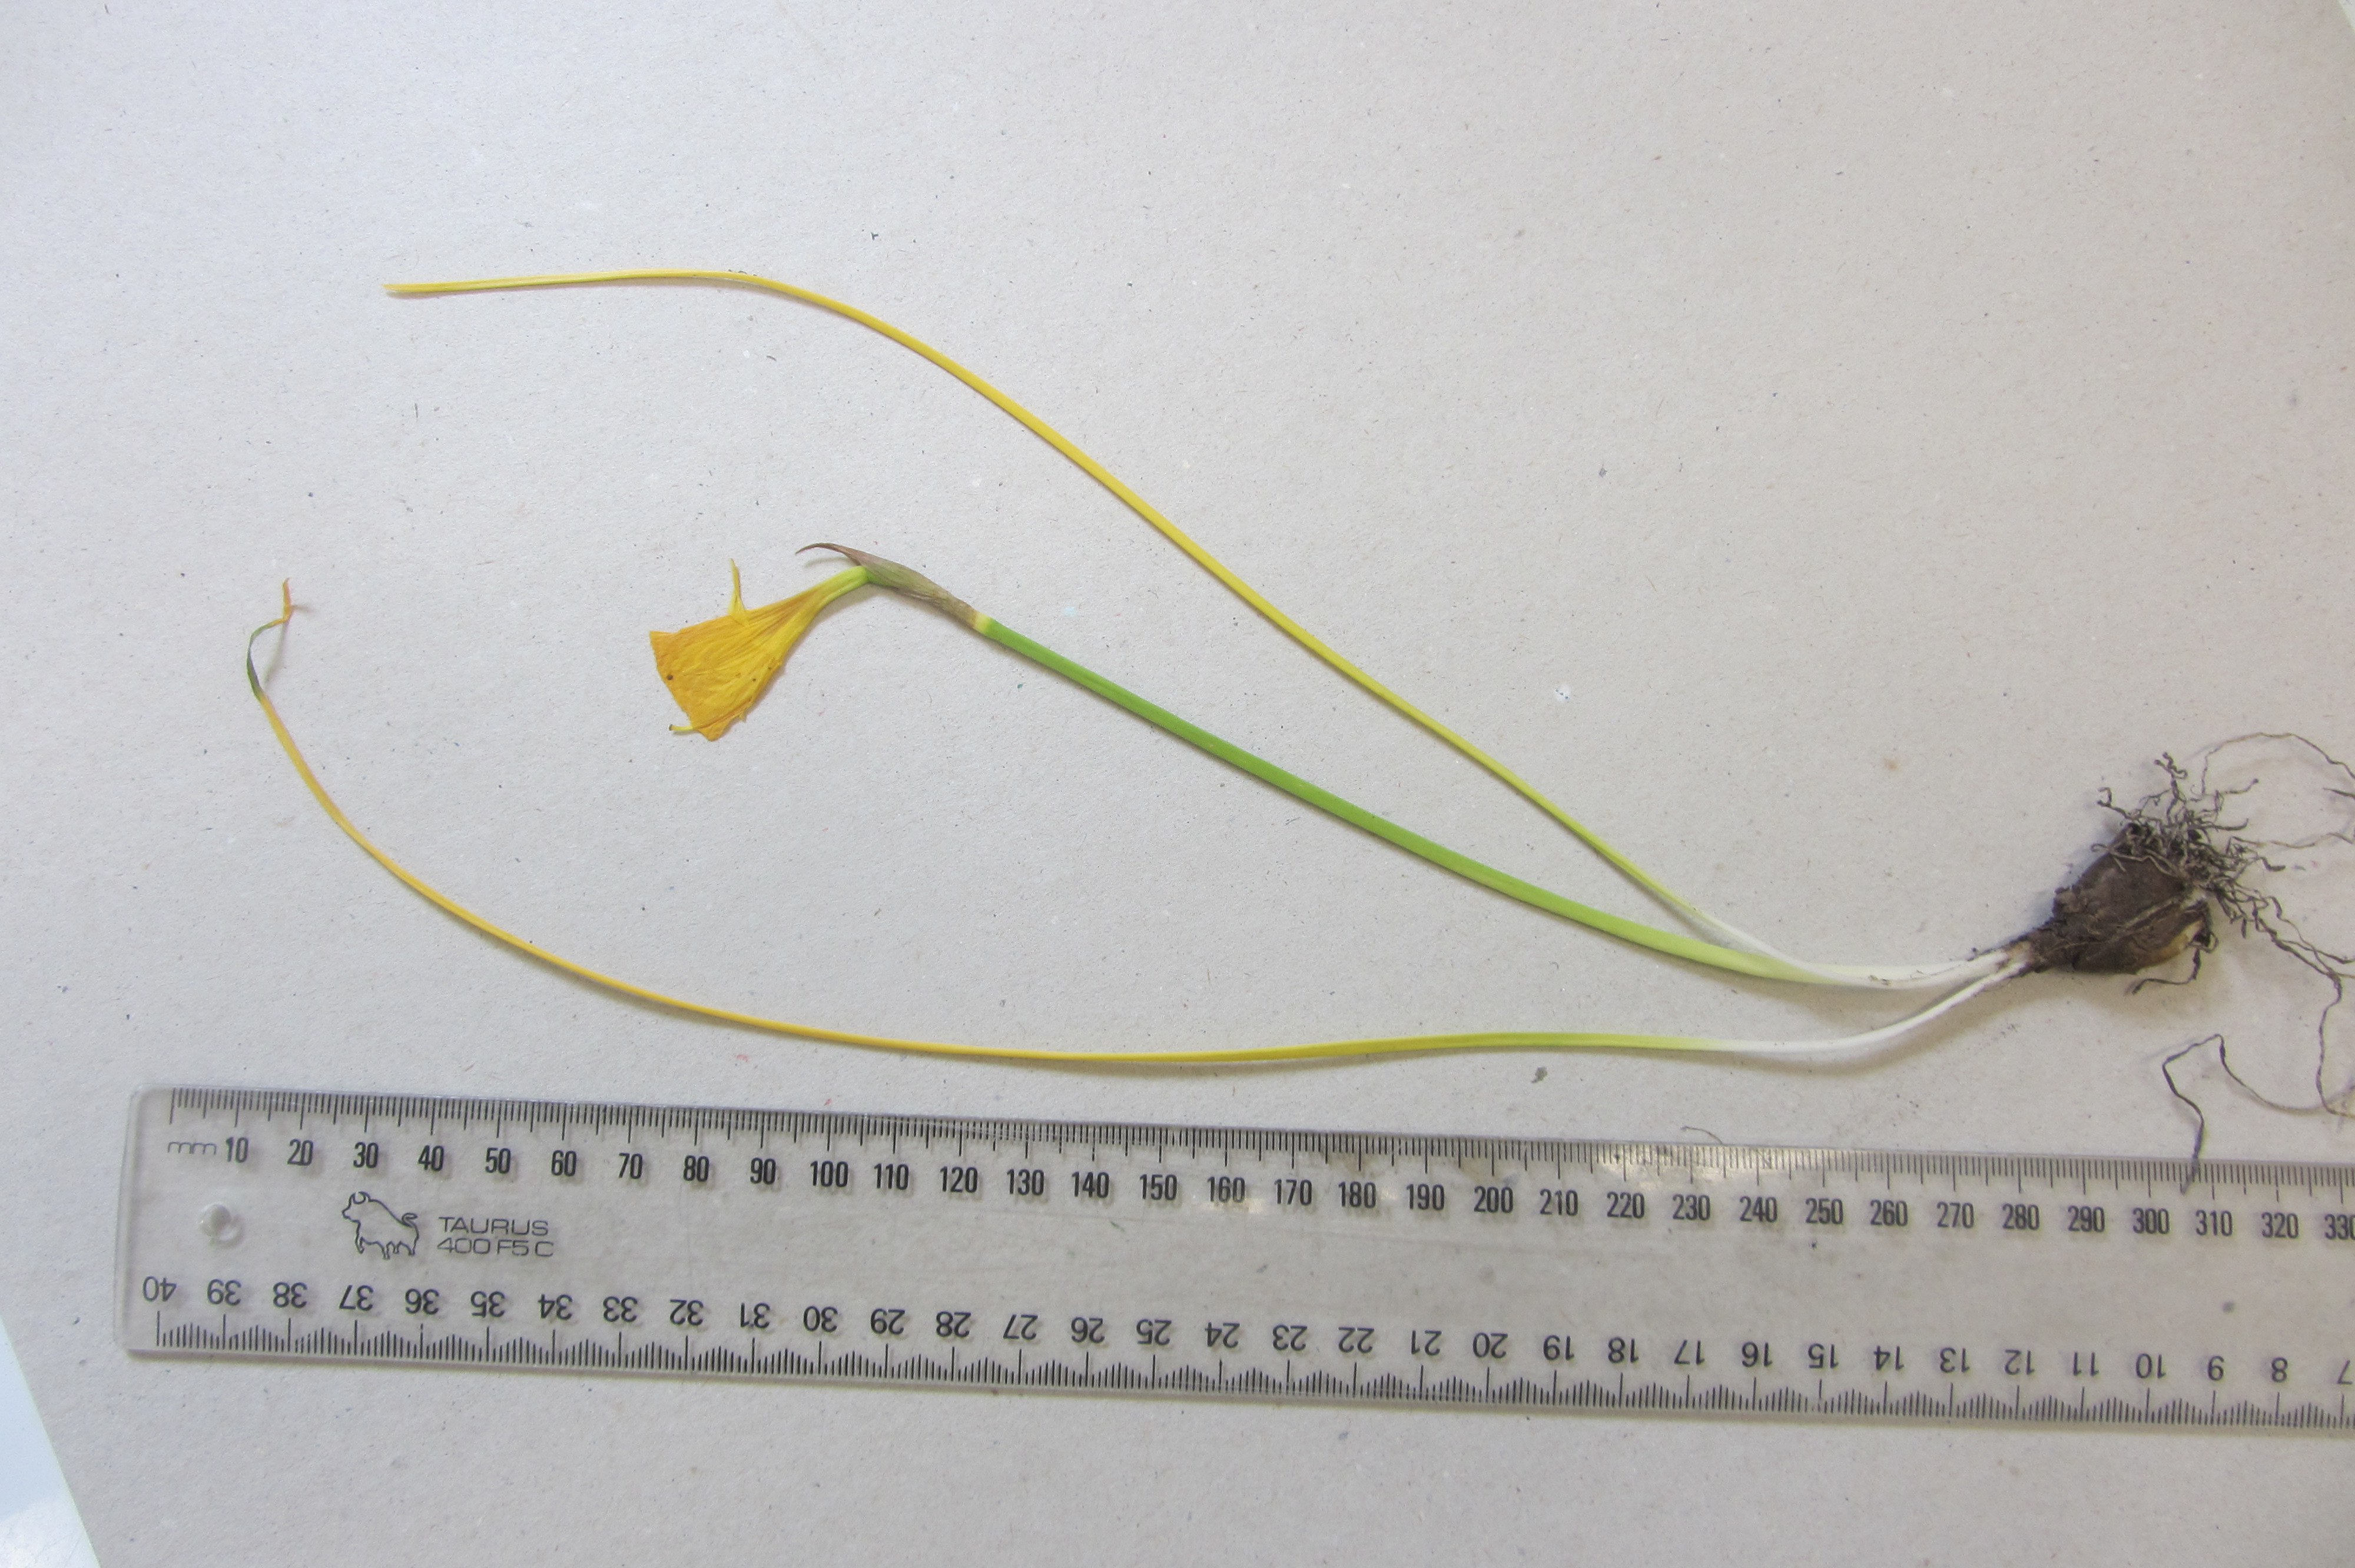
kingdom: Plantae
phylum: Tracheophyta
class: Liliopsida
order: Asparagales
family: Asparagaceae
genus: Hyacinthoides
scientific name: Hyacinthoides
